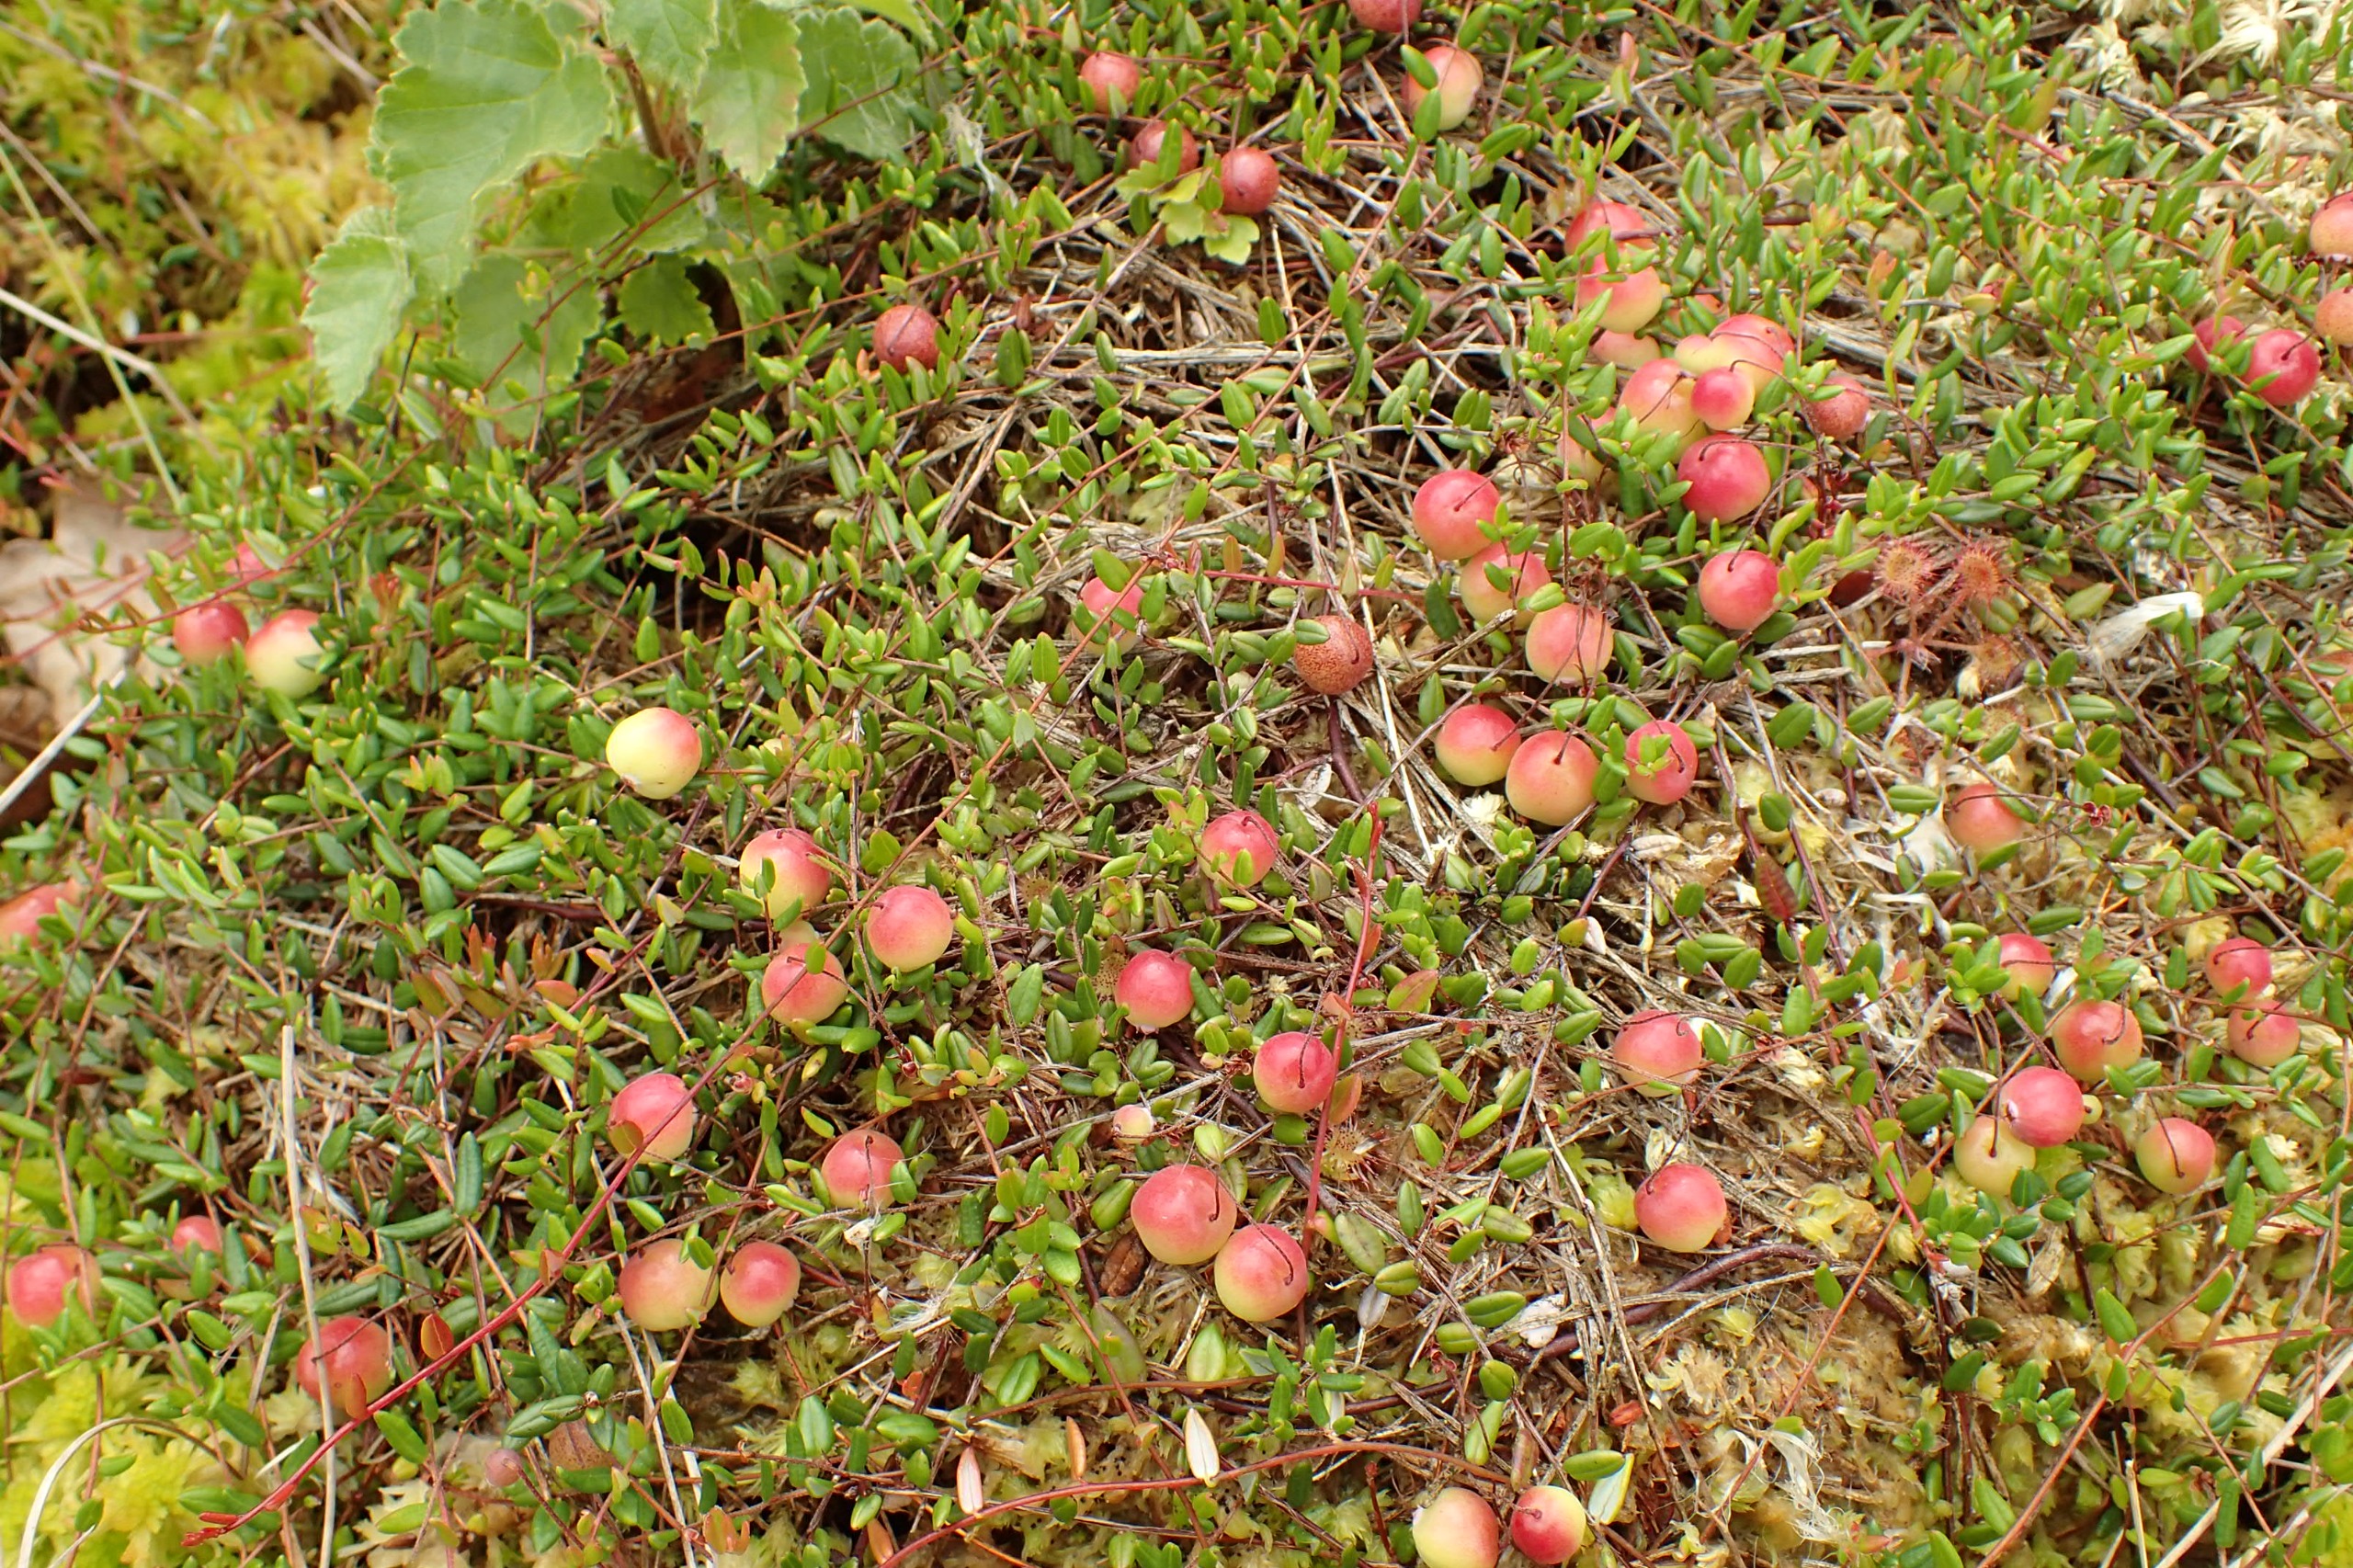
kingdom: Plantae
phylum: Tracheophyta
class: Magnoliopsida
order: Ericales
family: Ericaceae
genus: Vaccinium
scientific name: Vaccinium oxycoccos
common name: Tranebær
